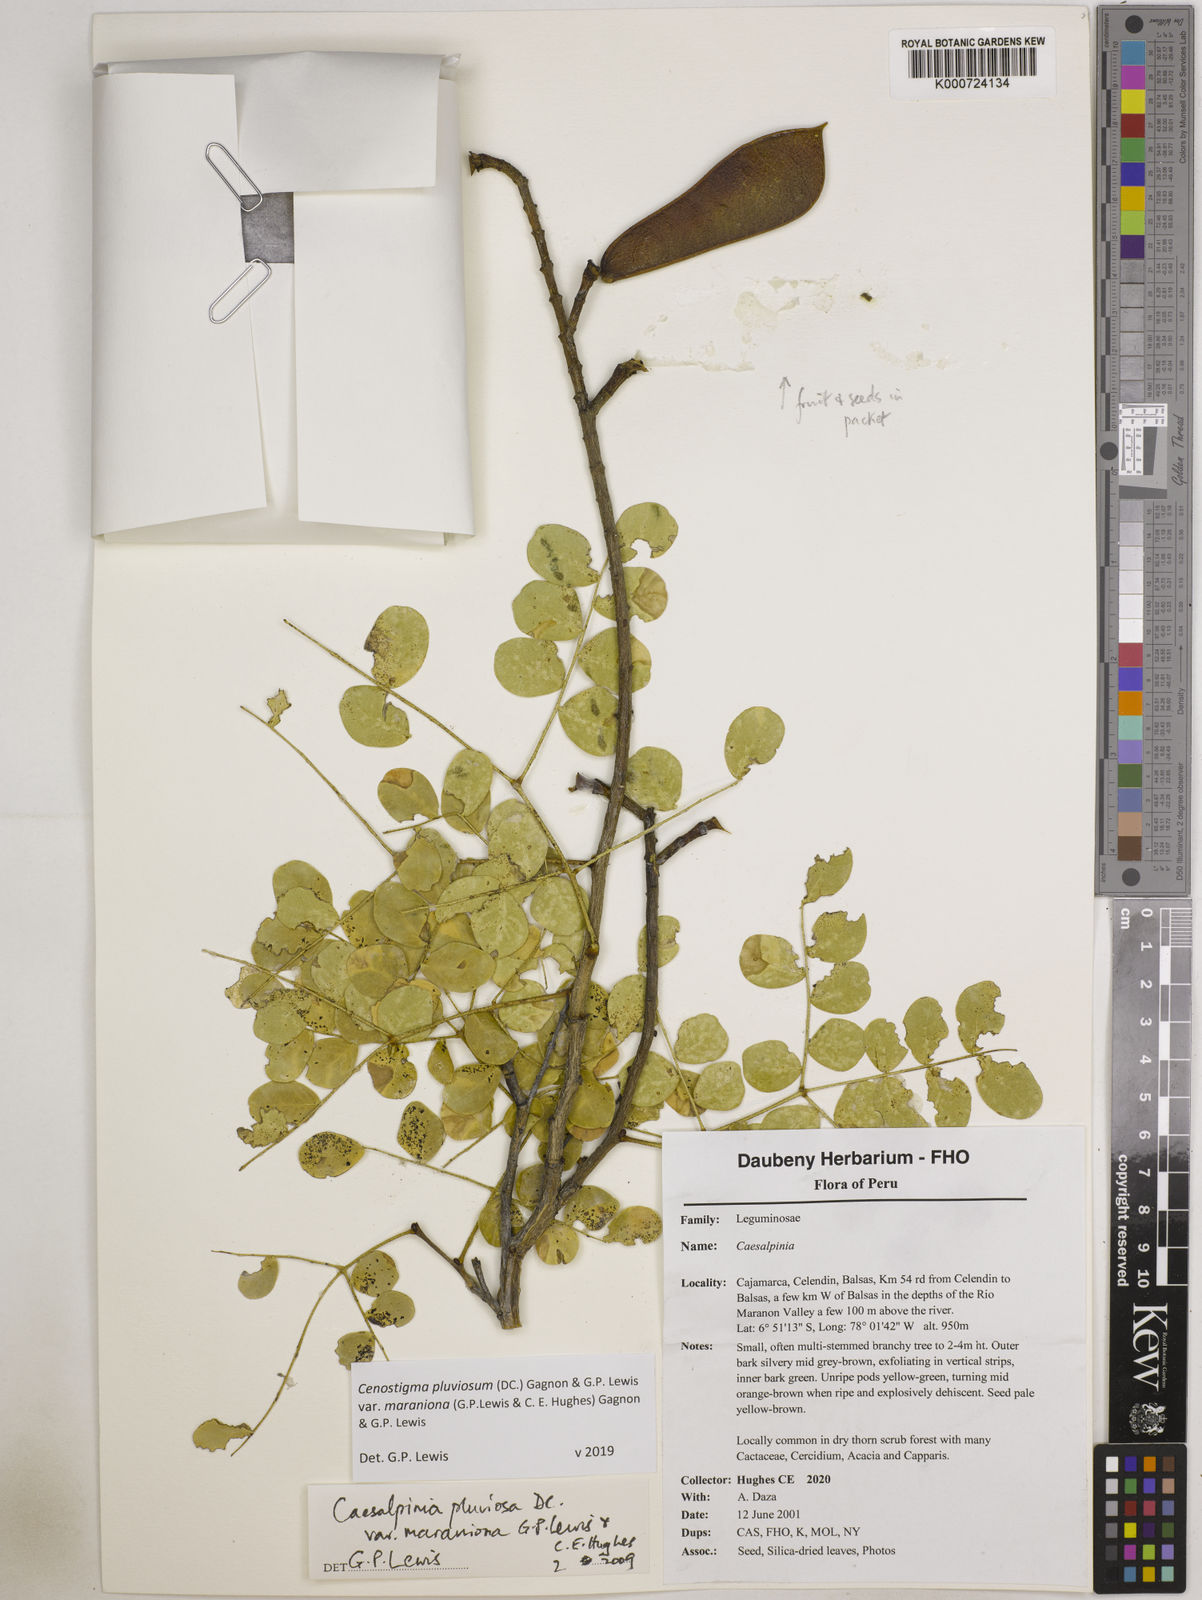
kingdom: Plantae
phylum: Tracheophyta
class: Magnoliopsida
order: Fabales
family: Fabaceae
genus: Cenostigma
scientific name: Cenostigma pluviosum
